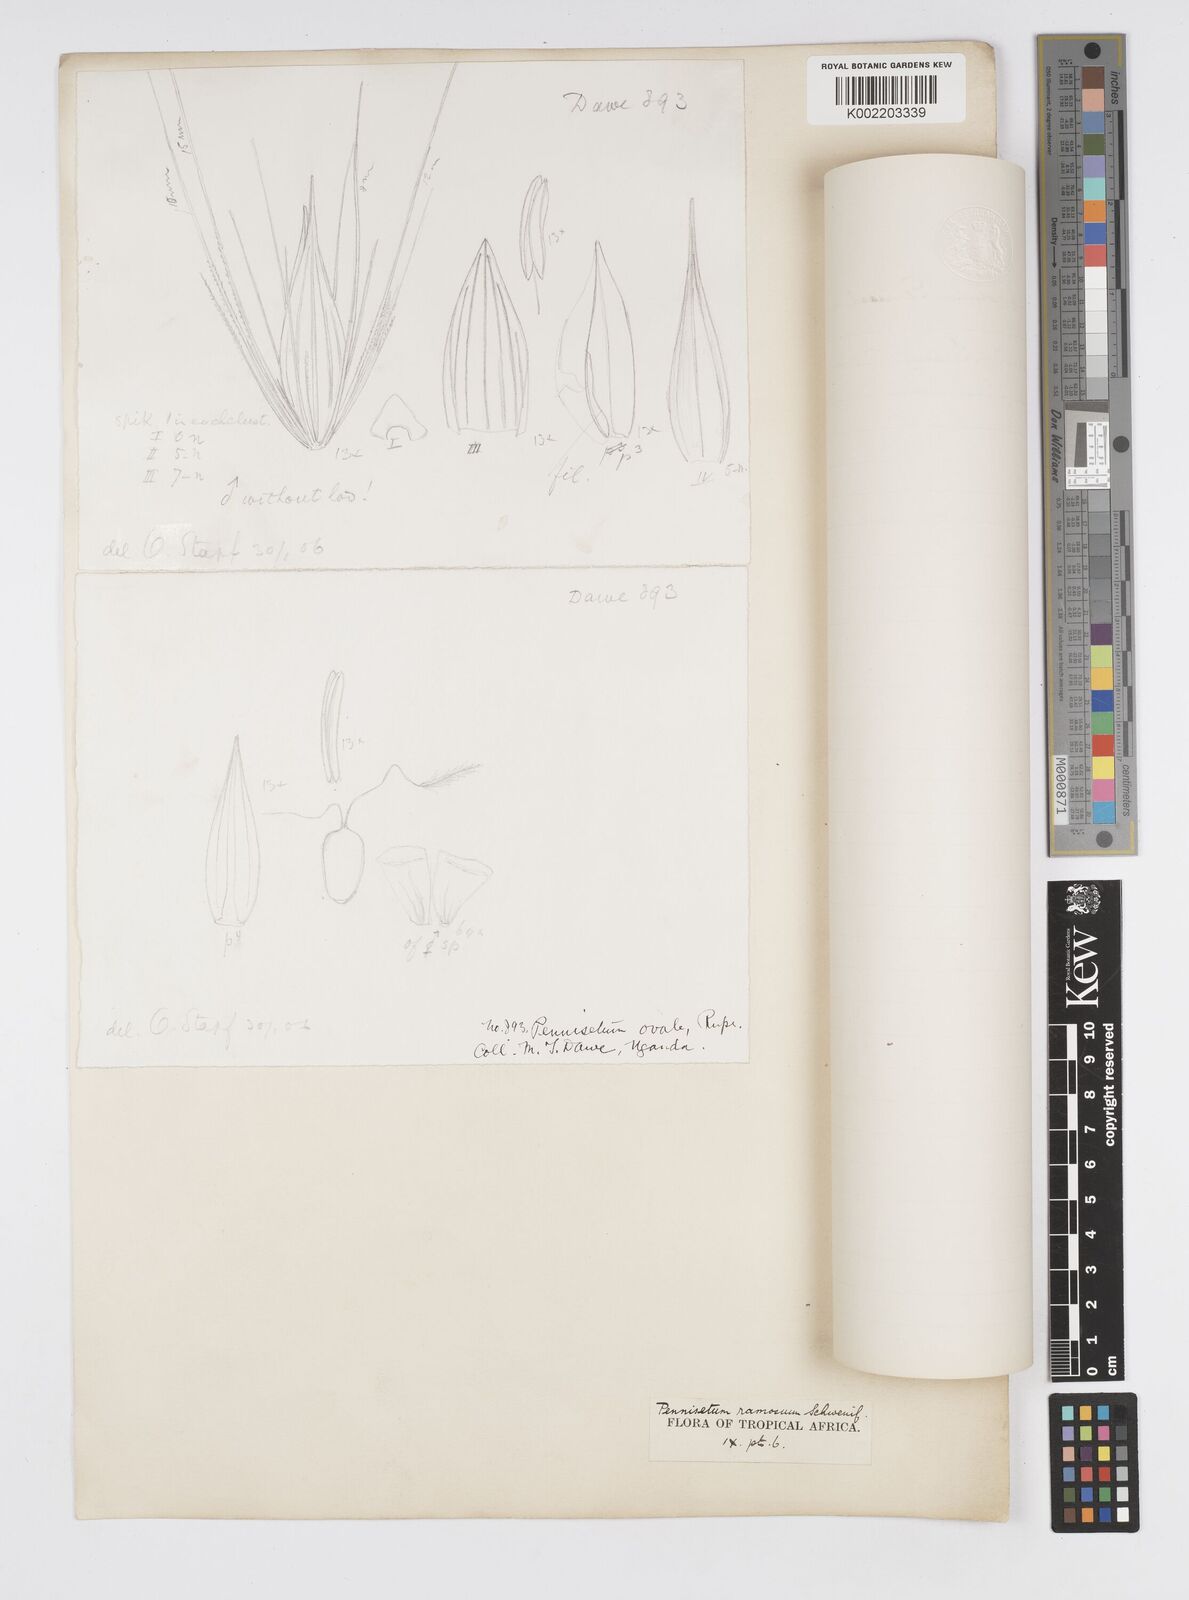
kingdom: Plantae
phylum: Tracheophyta
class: Liliopsida
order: Poales
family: Poaceae
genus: Cenchrus
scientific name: Cenchrus ramosus
